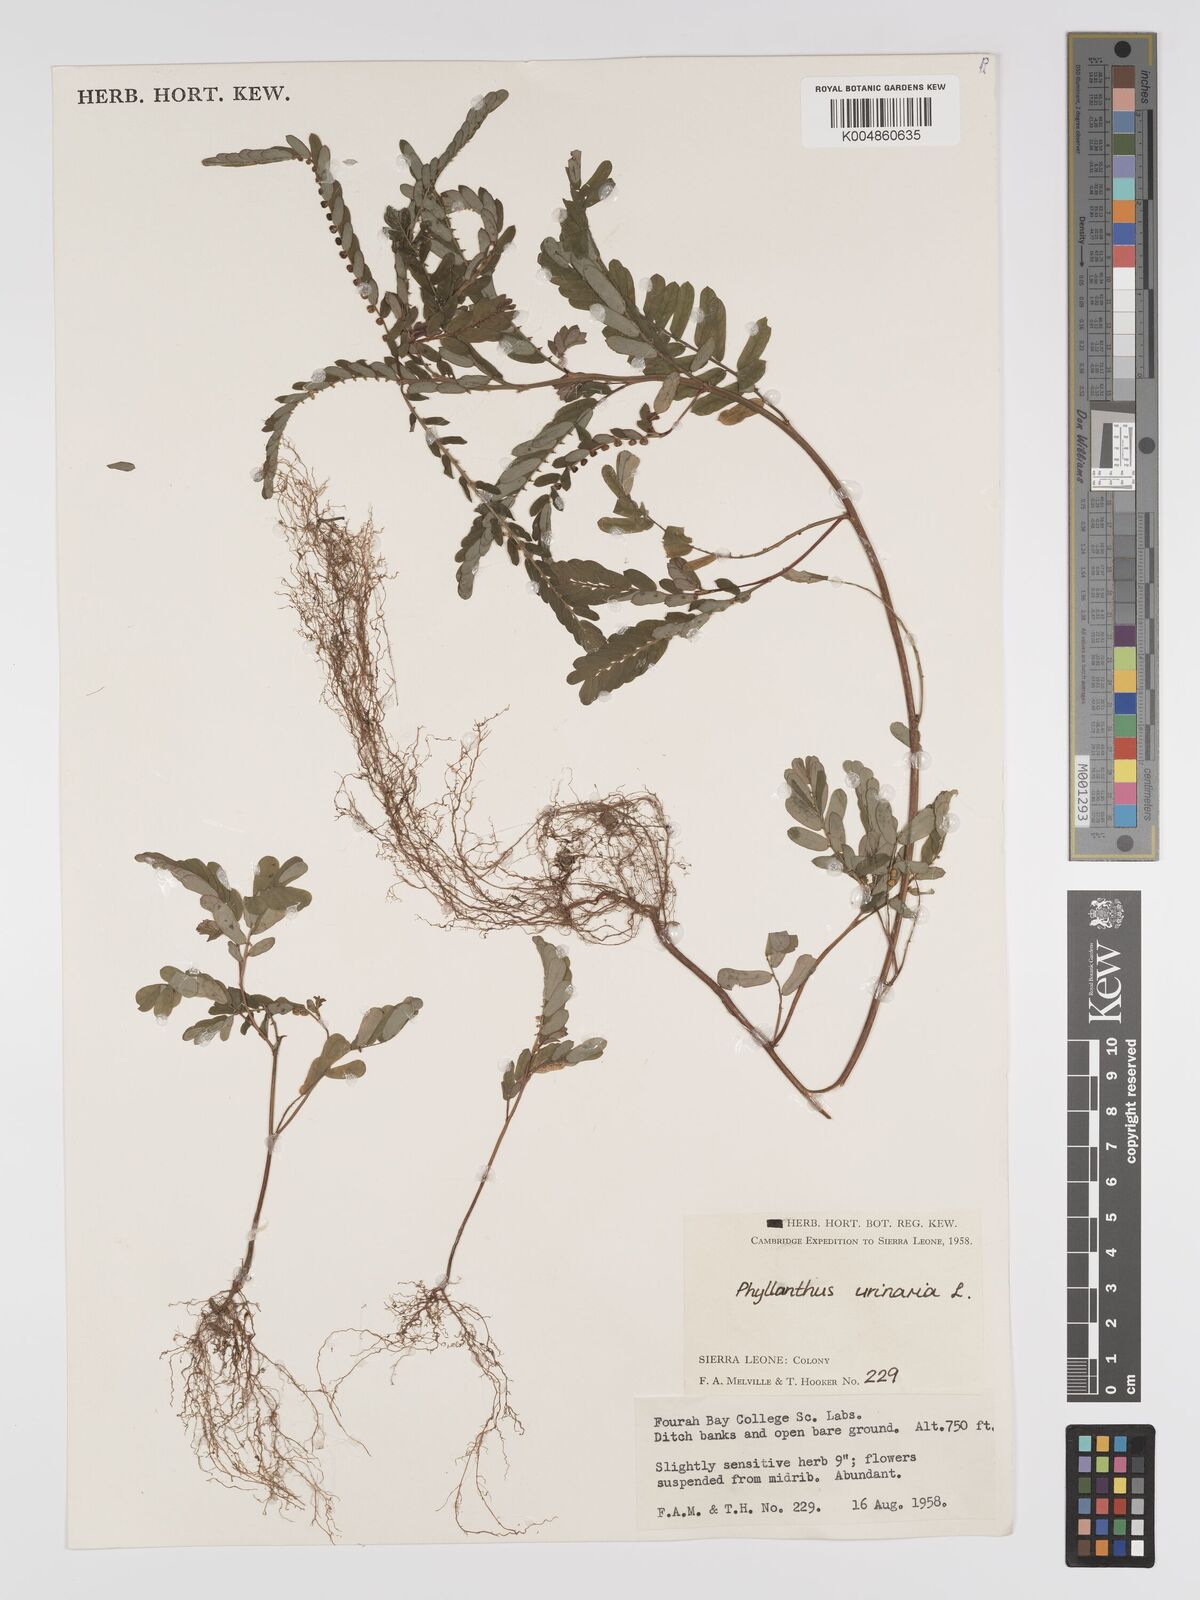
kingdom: Plantae
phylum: Tracheophyta
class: Magnoliopsida
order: Malpighiales
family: Phyllanthaceae
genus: Phyllanthus
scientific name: Phyllanthus urinaria
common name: Chamber bitter
